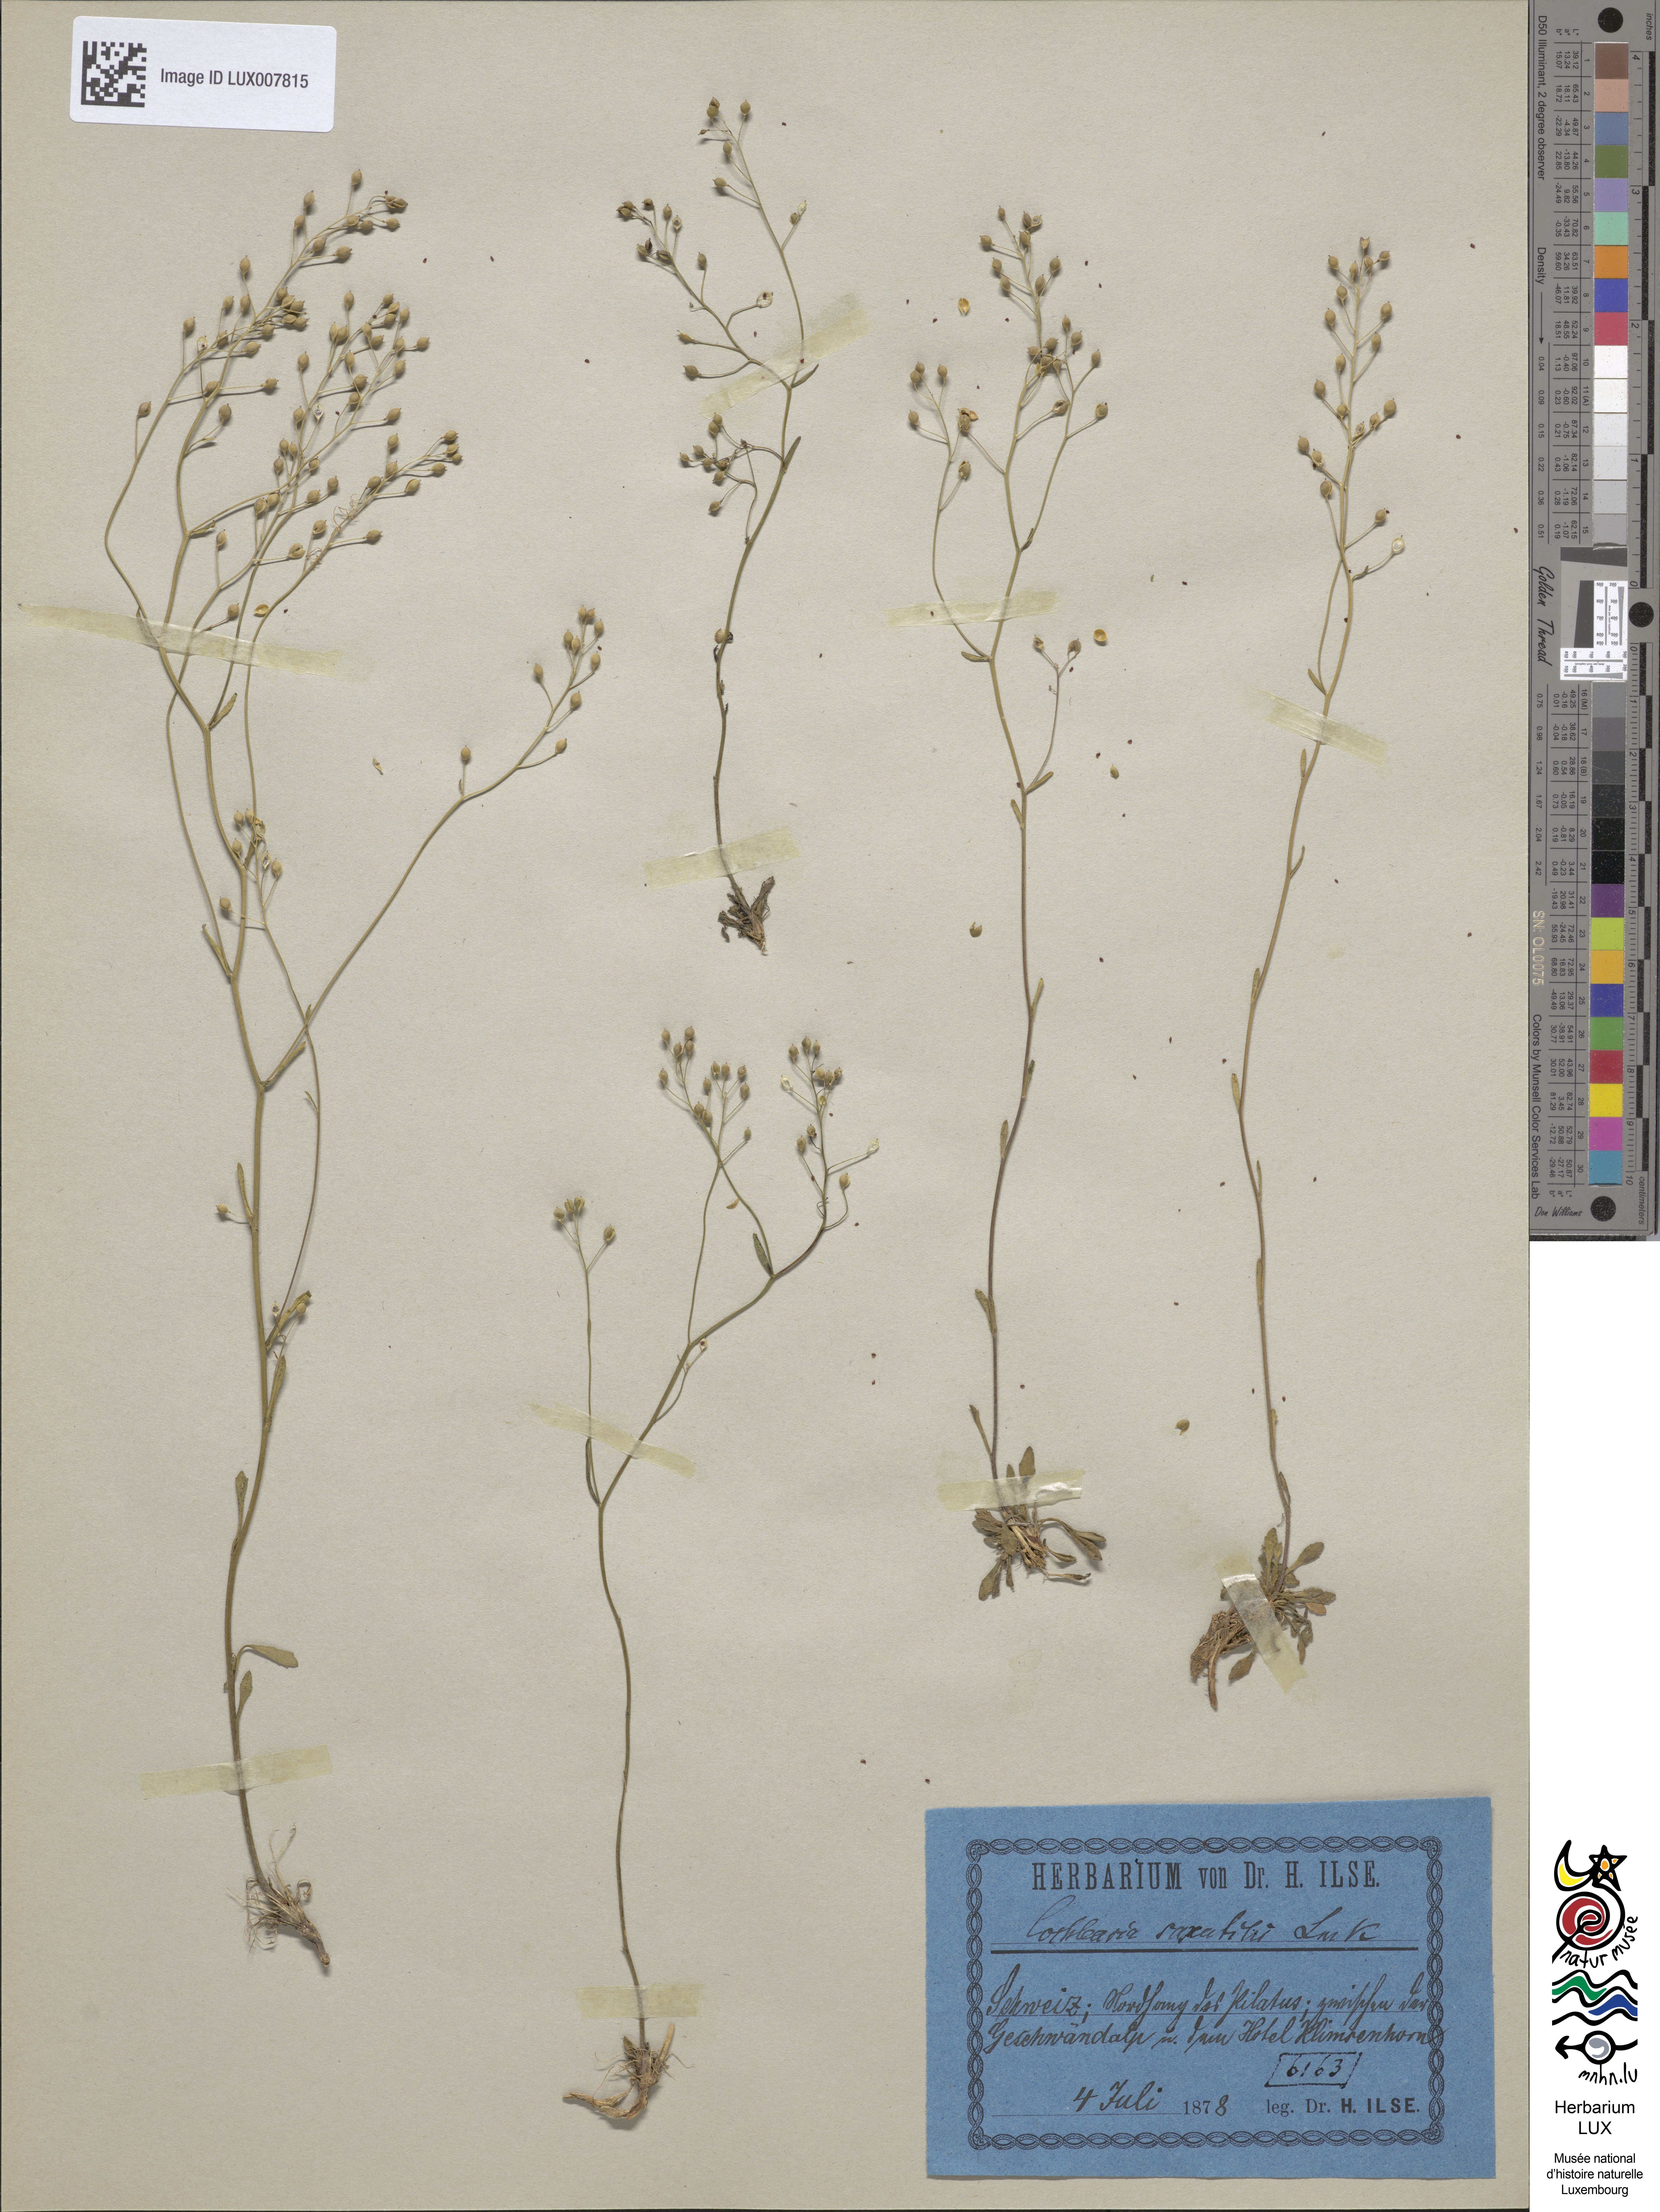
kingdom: Plantae
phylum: Tracheophyta
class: Magnoliopsida
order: Brassicales
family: Brassicaceae
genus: Kernera
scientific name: Kernera saxatilis
